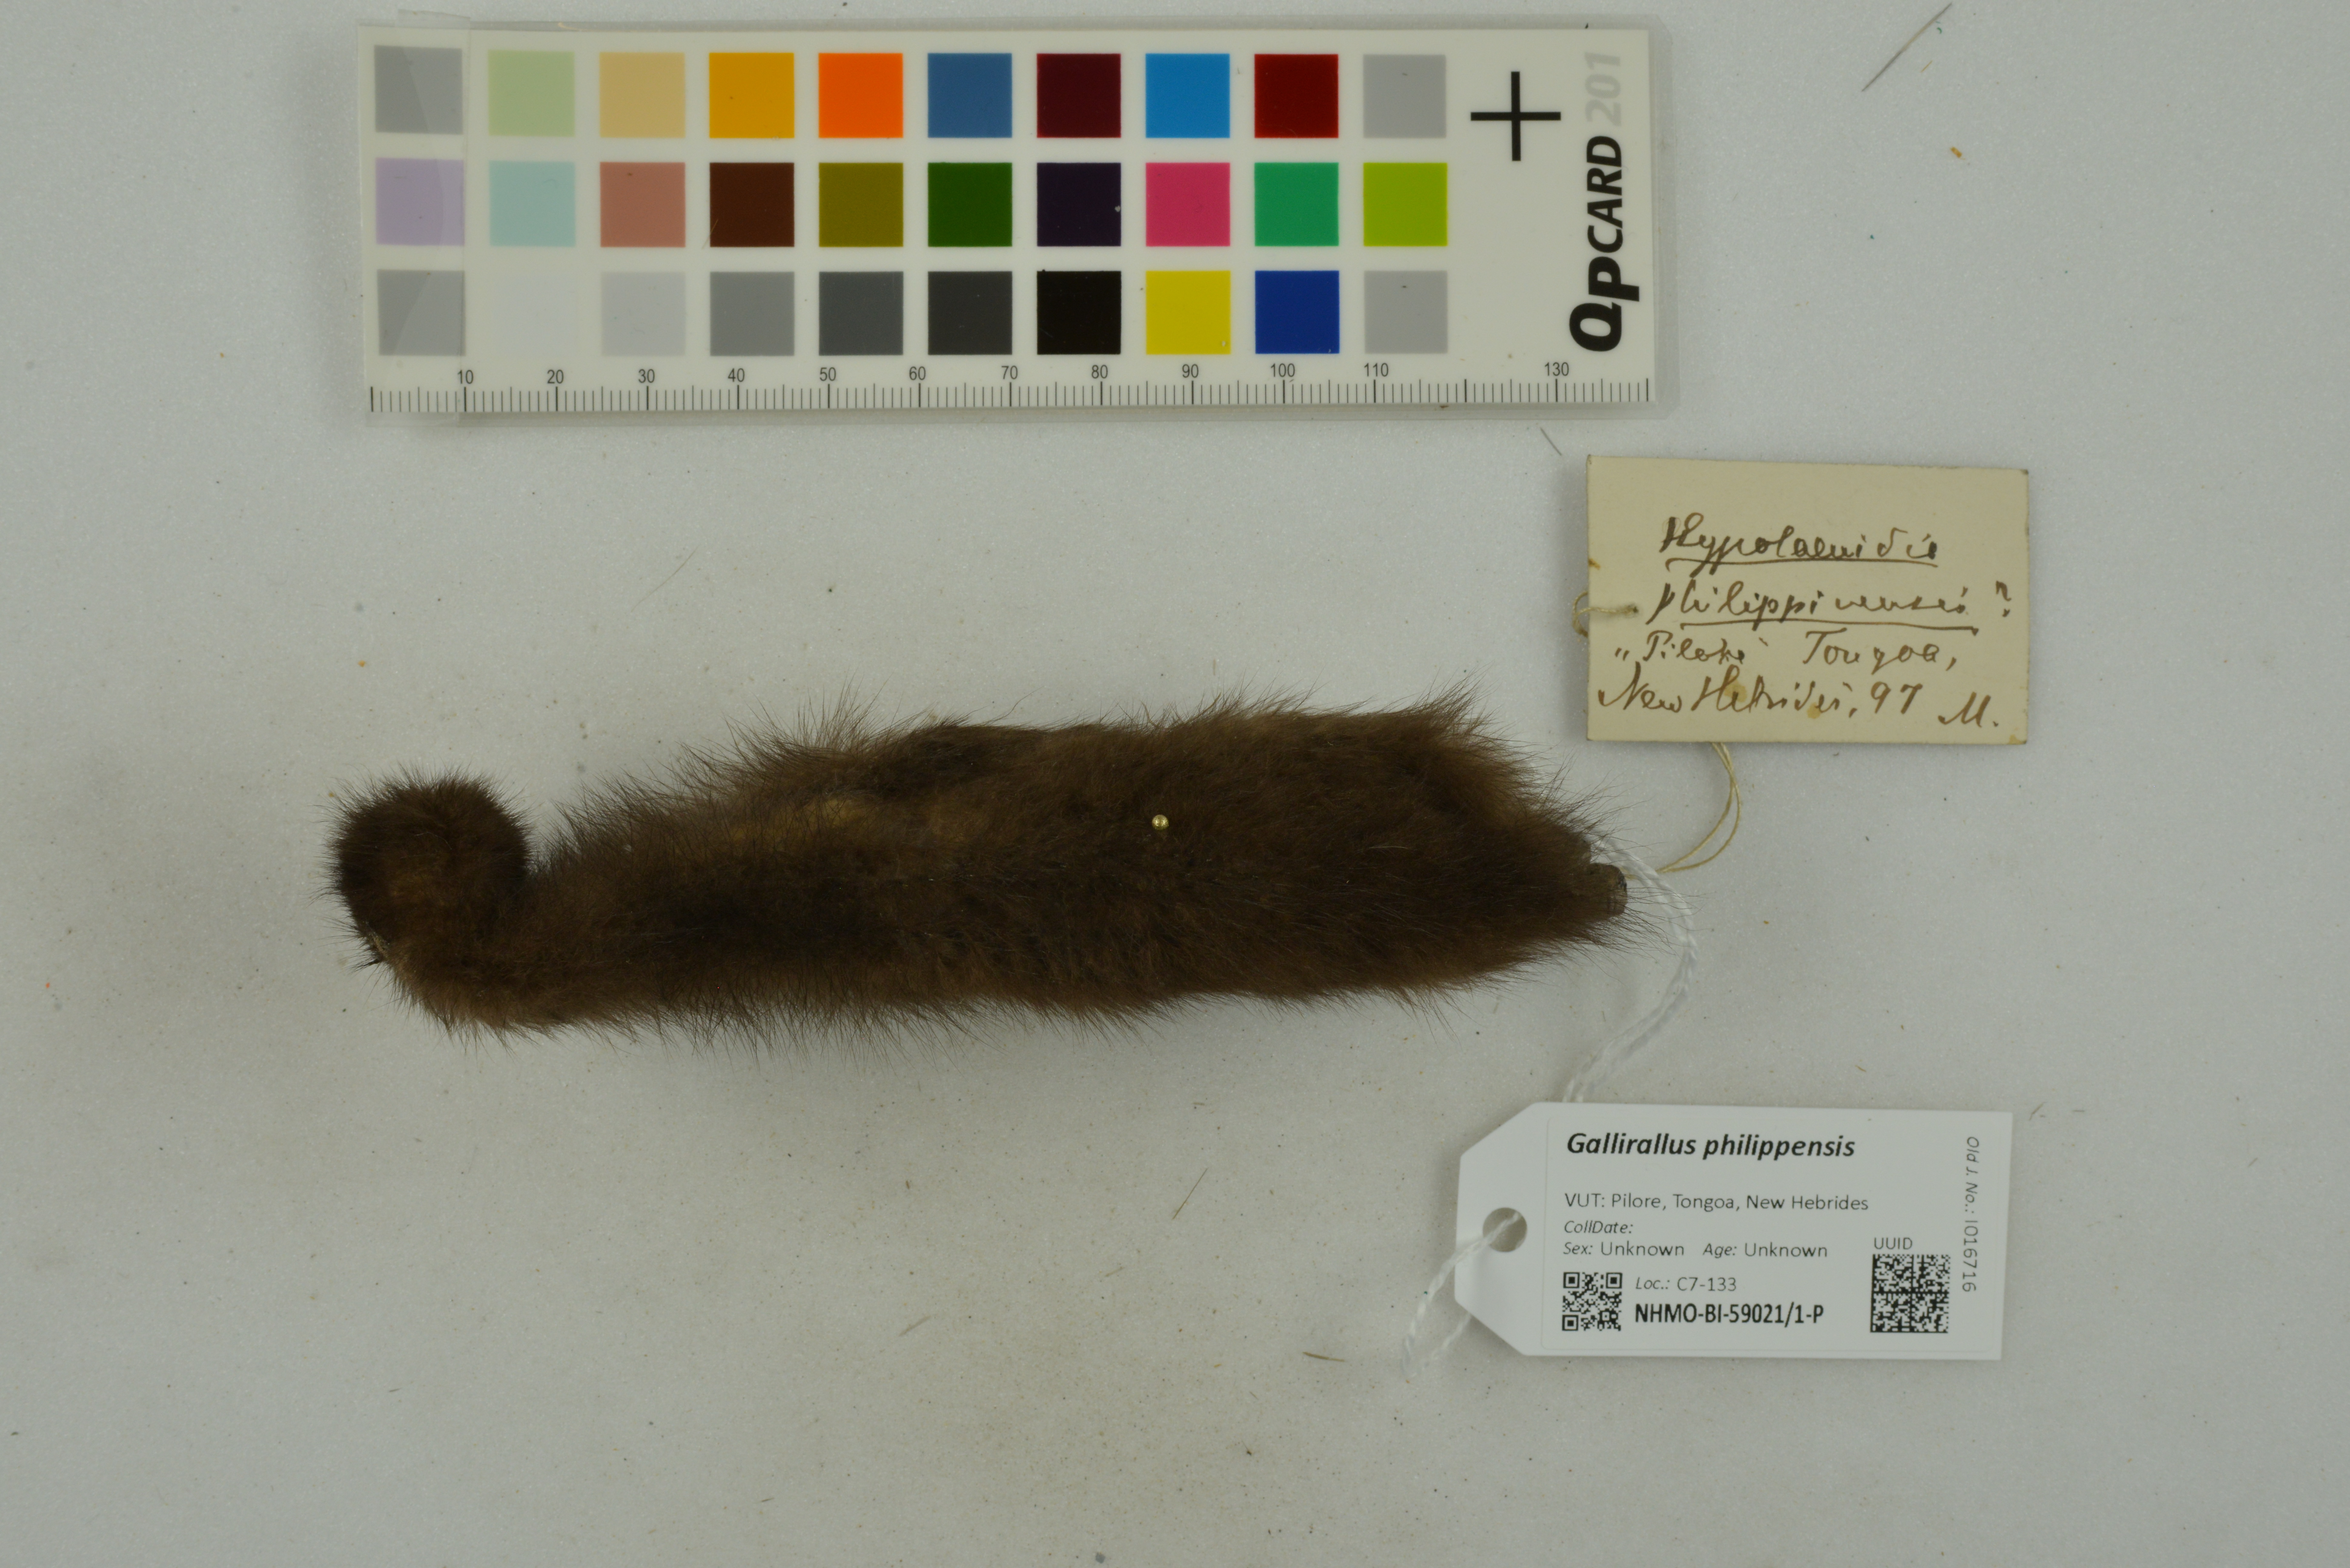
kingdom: Animalia
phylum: Chordata
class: Aves
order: Gruiformes
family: Rallidae
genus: Gallirallus
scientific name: Gallirallus philippensis
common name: Buff-banded rail
